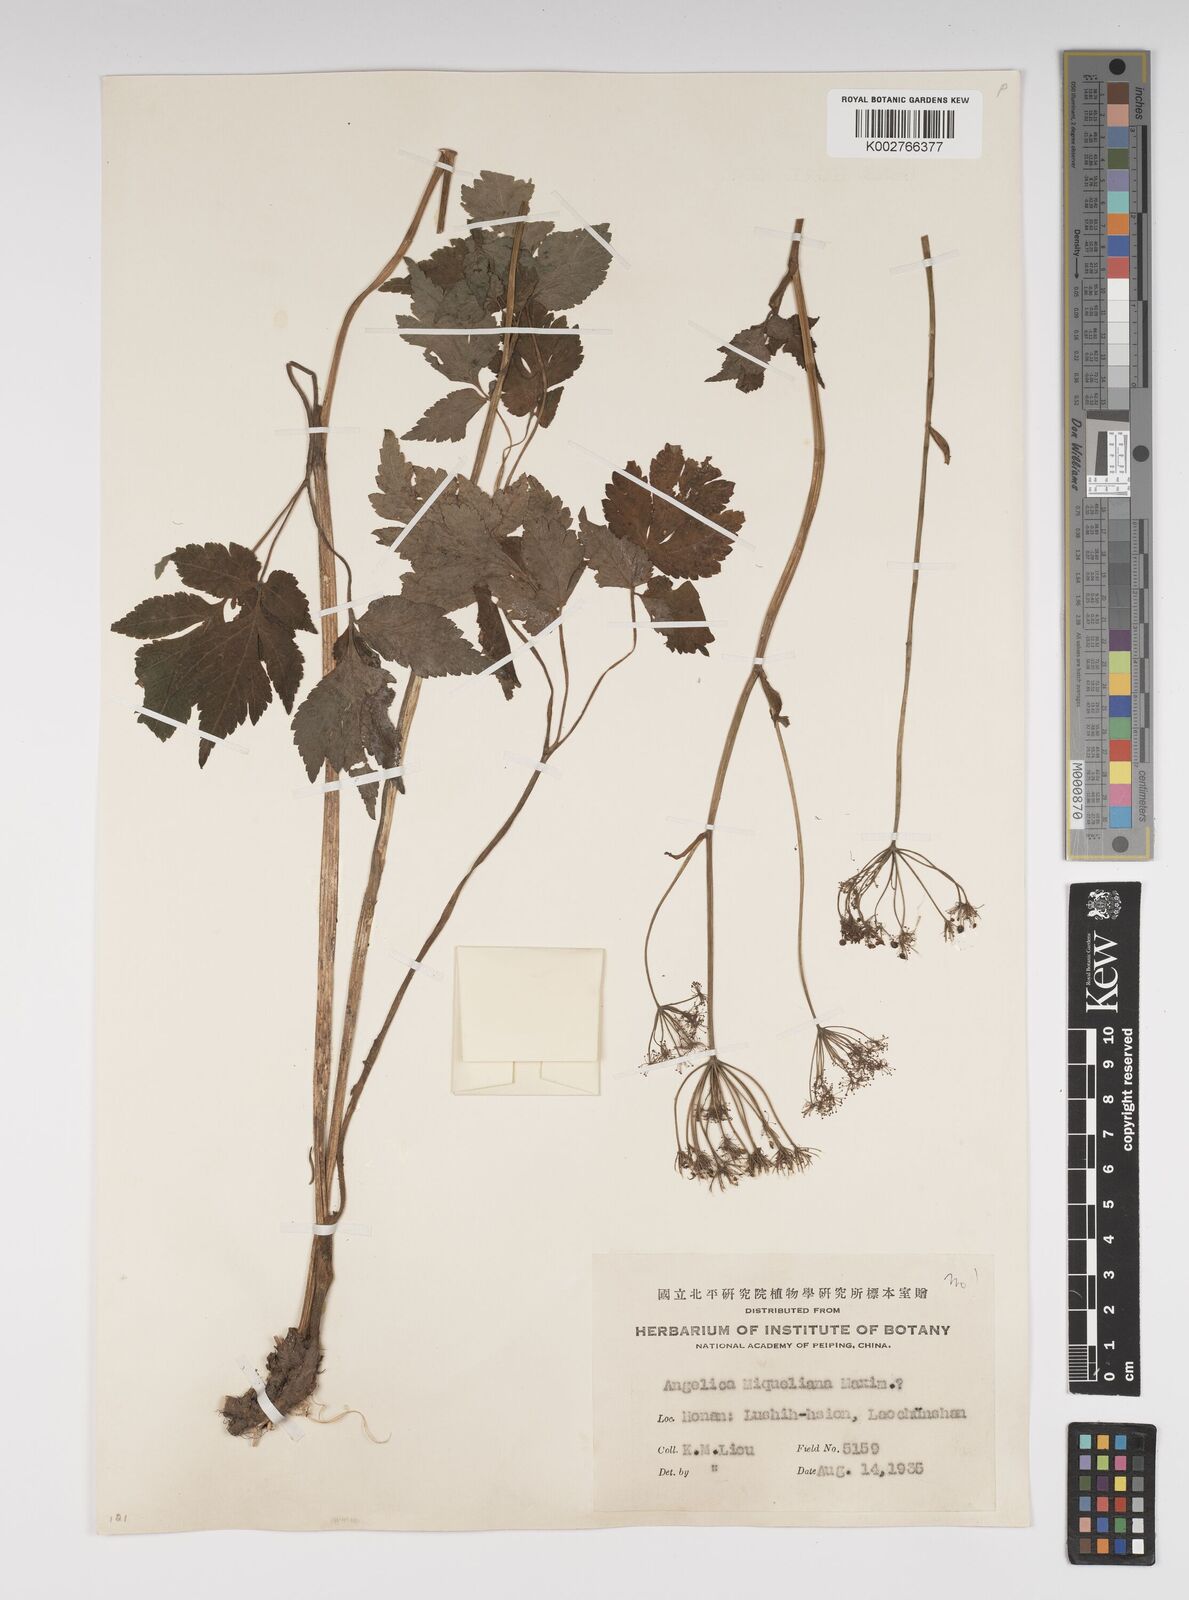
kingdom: Plantae
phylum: Tracheophyta
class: Magnoliopsida
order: Apiales
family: Apiaceae
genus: Ostericum
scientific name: Ostericum sieboldii
